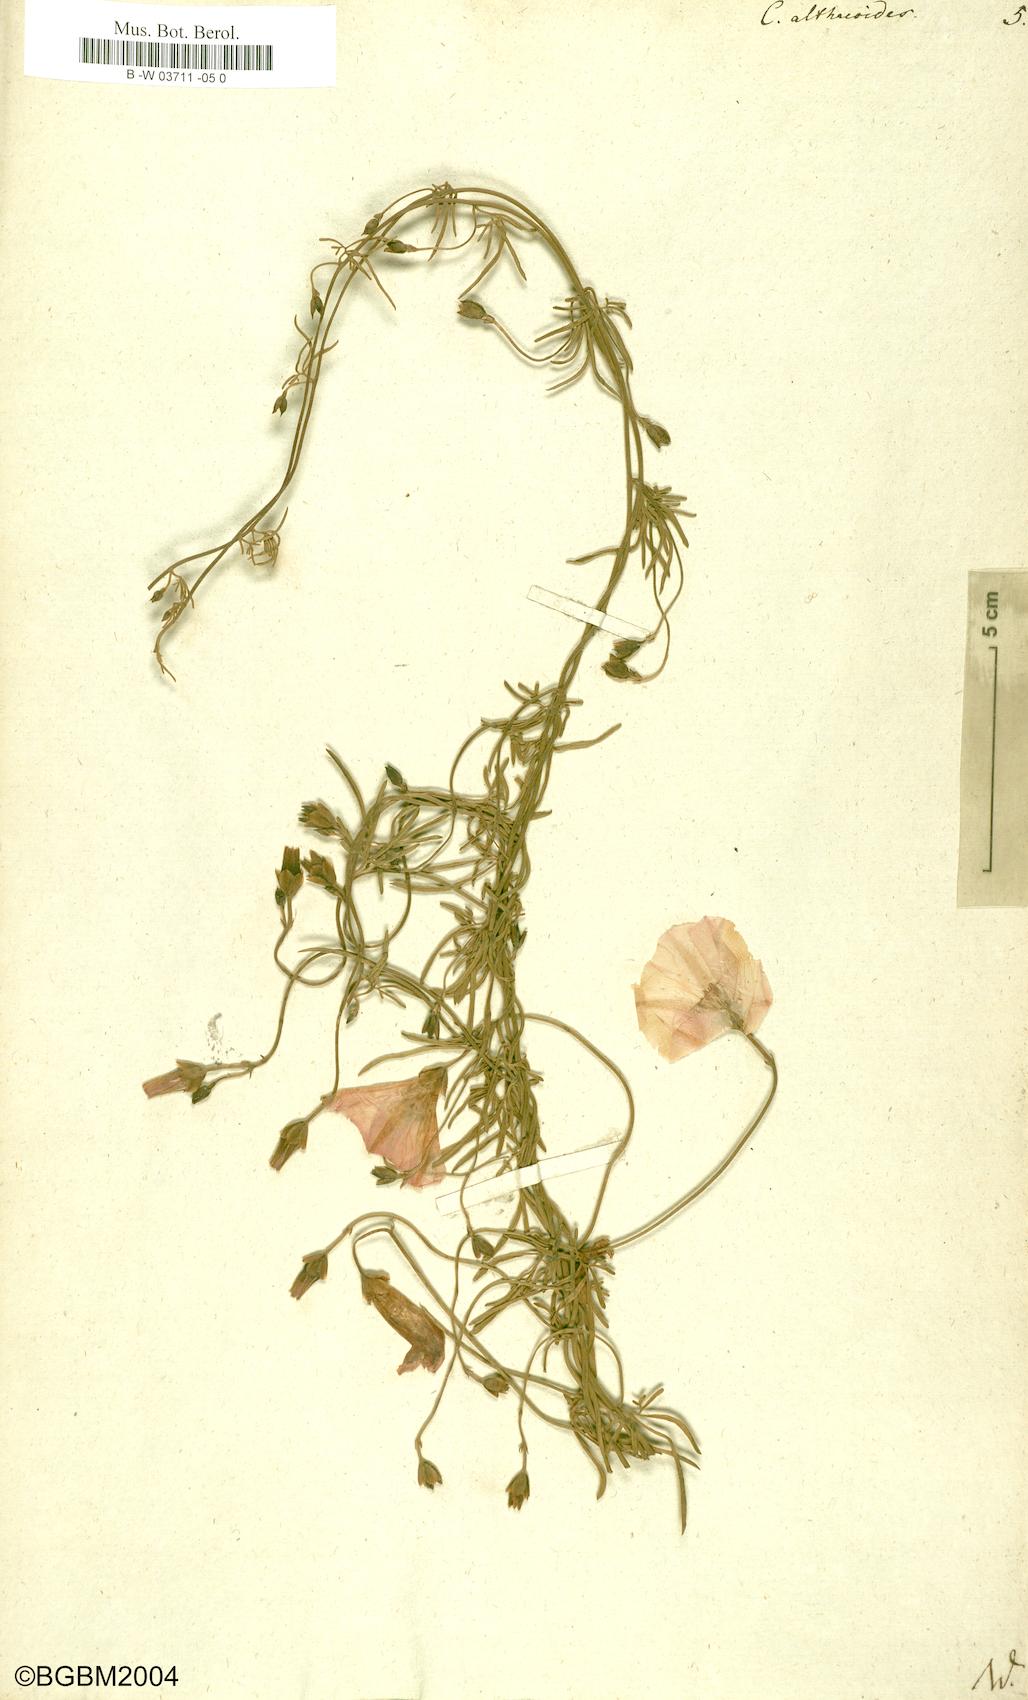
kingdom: Plantae
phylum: Tracheophyta
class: Magnoliopsida
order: Solanales
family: Convolvulaceae
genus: Convolvulus
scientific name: Convolvulus althaeoides
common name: Mallow bindweed
